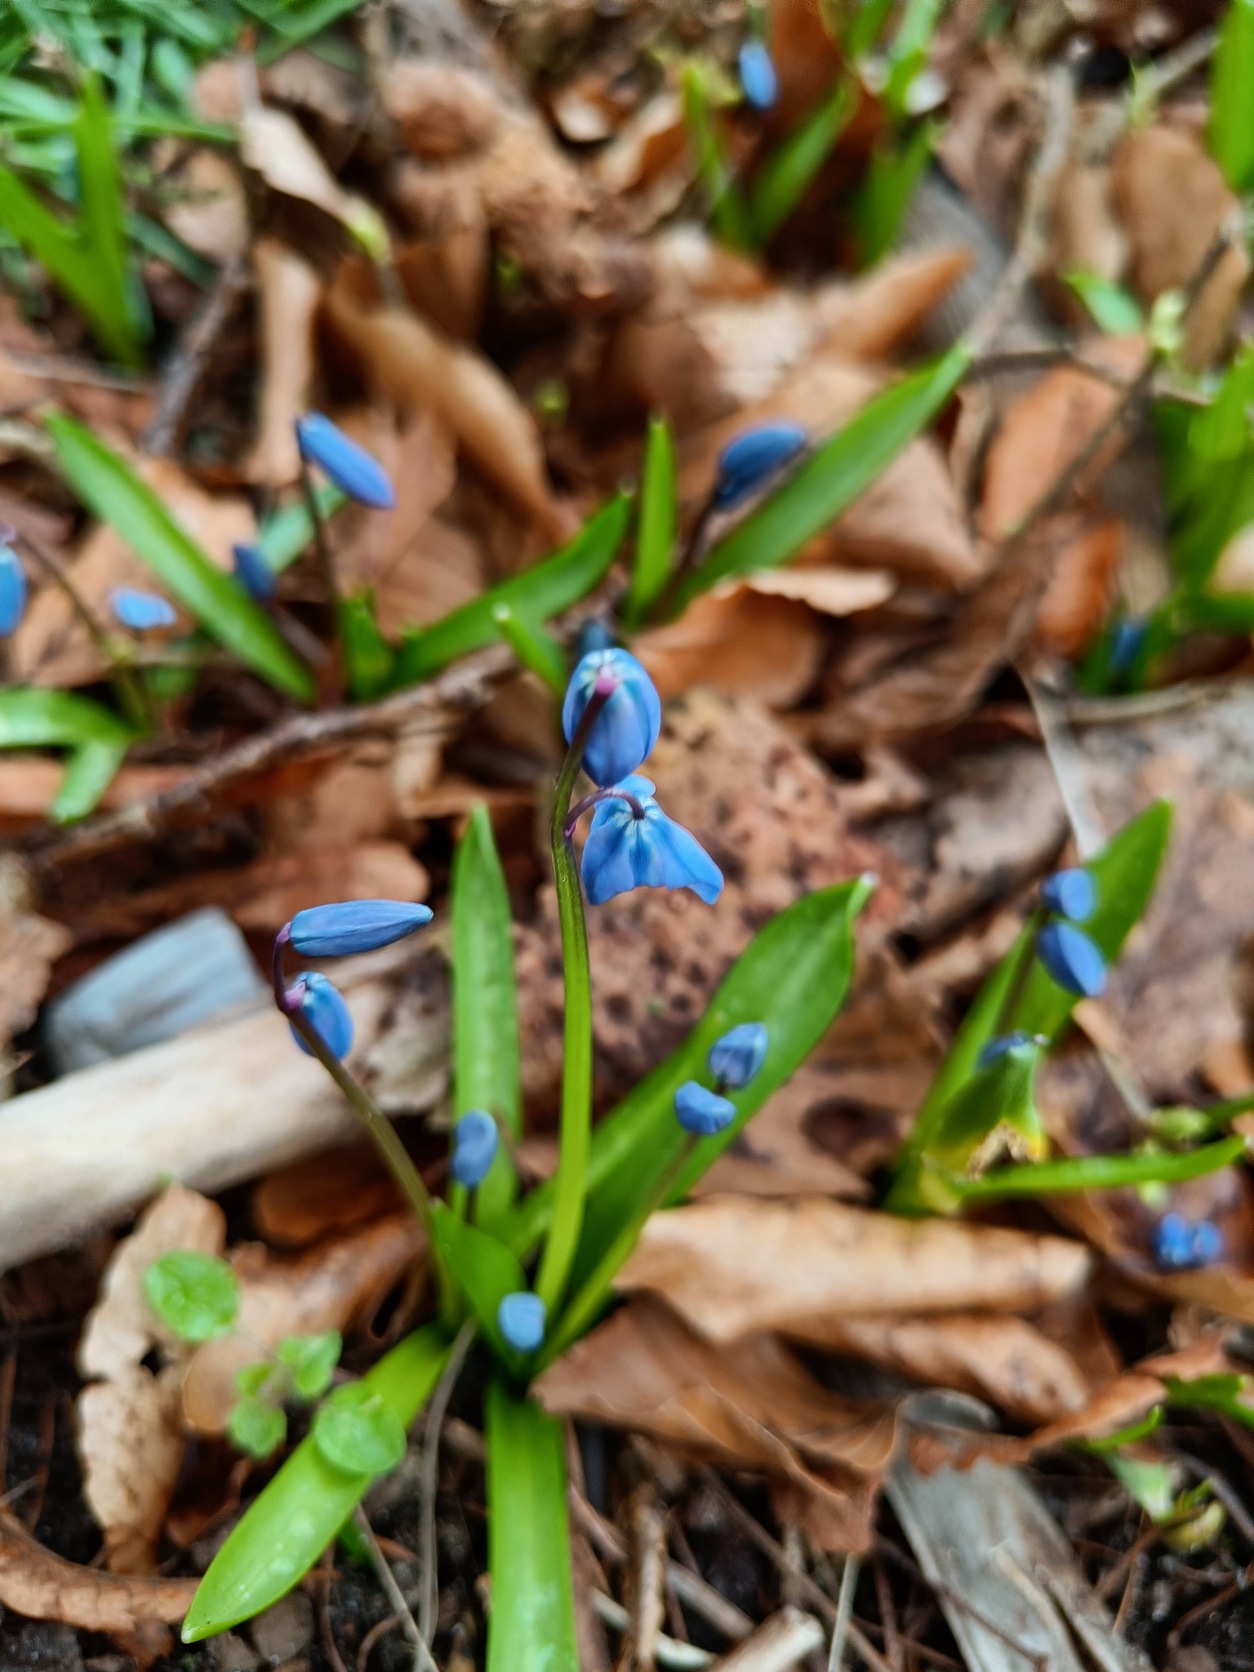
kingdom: Plantae
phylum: Tracheophyta
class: Liliopsida
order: Asparagales
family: Asparagaceae
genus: Scilla
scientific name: Scilla siberica
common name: Russisk skilla
